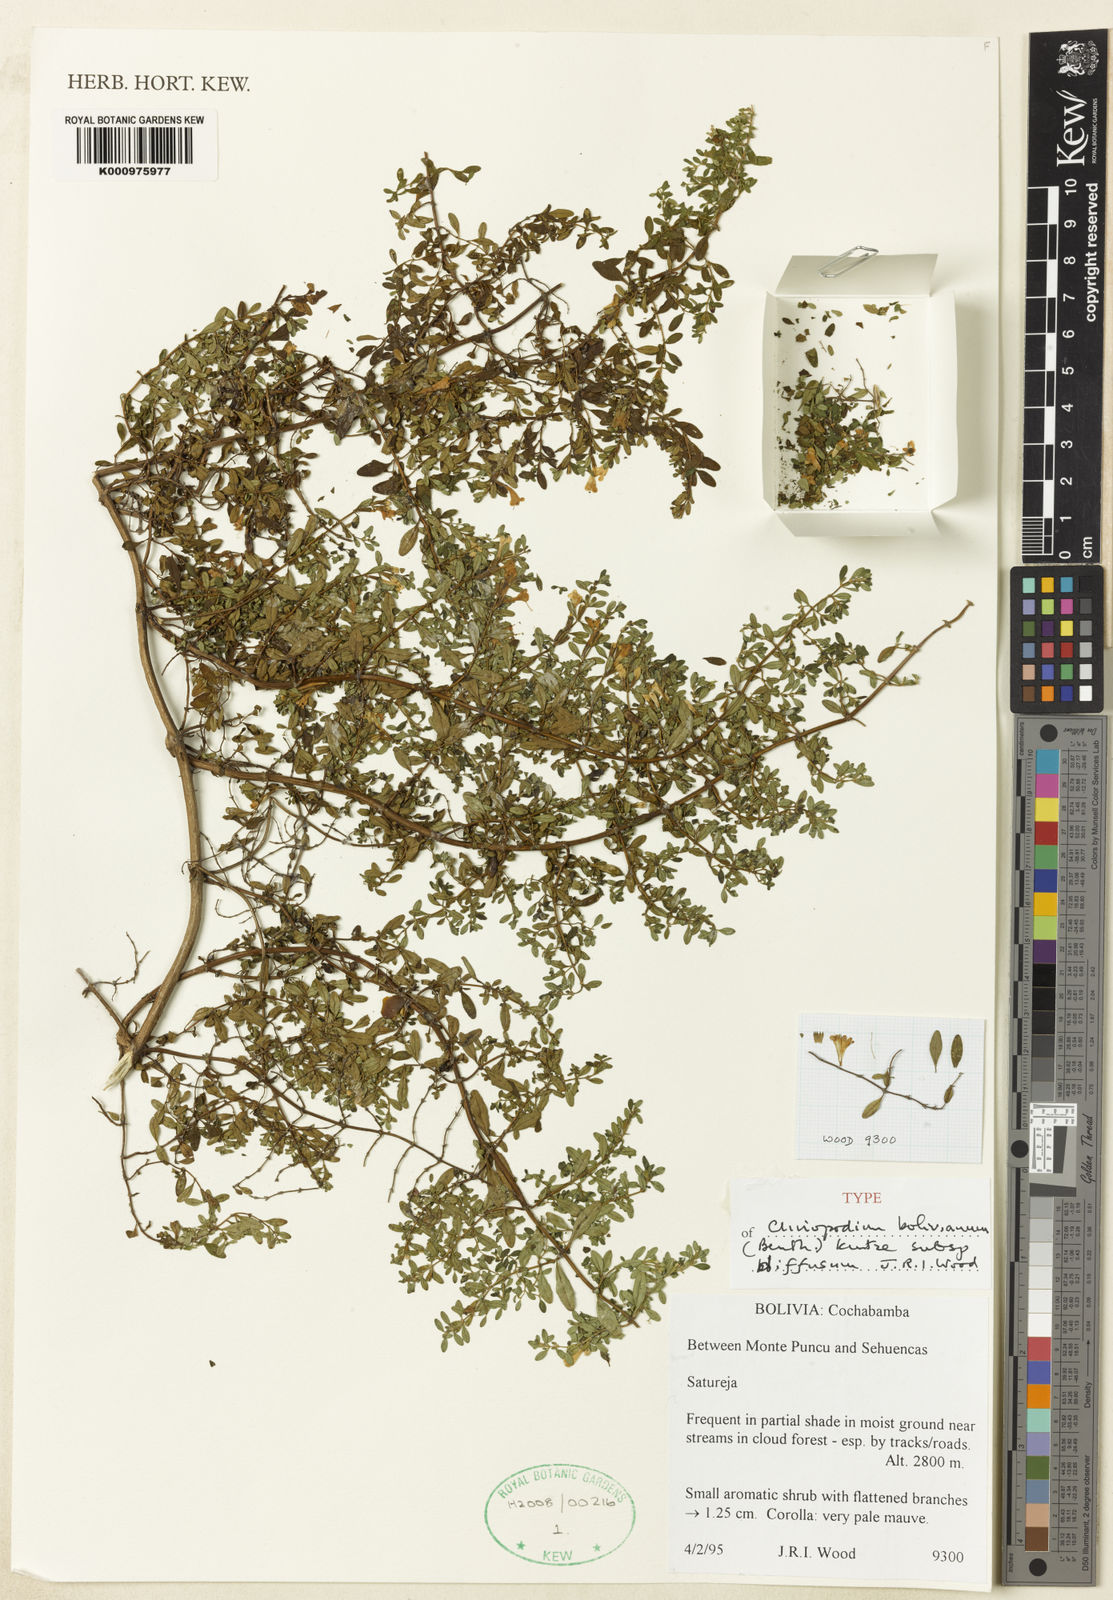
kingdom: Plantae
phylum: Tracheophyta
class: Magnoliopsida
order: Lamiales
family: Lamiaceae
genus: Clinopodium
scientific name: Clinopodium bolivianum
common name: Inca muña
